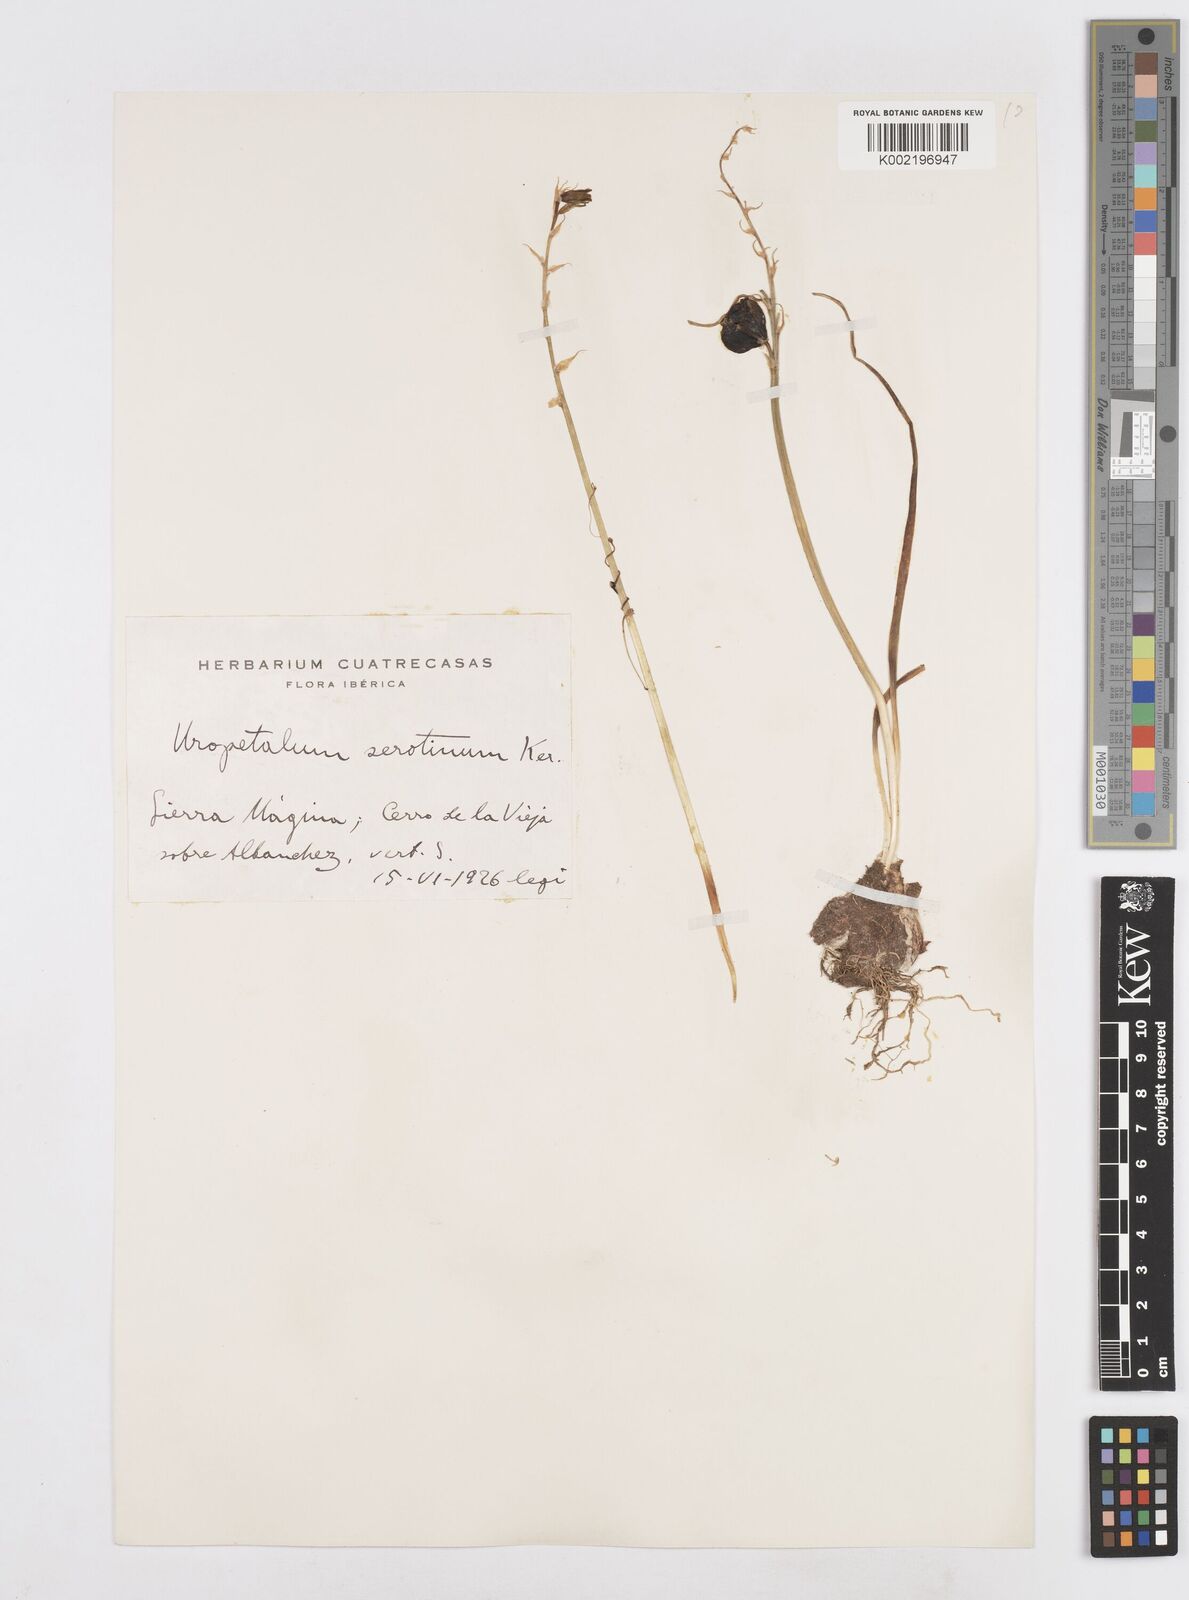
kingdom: Plantae
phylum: Tracheophyta
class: Liliopsida
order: Asparagales
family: Asparagaceae
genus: Dipcadi
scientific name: Dipcadi serotinum
